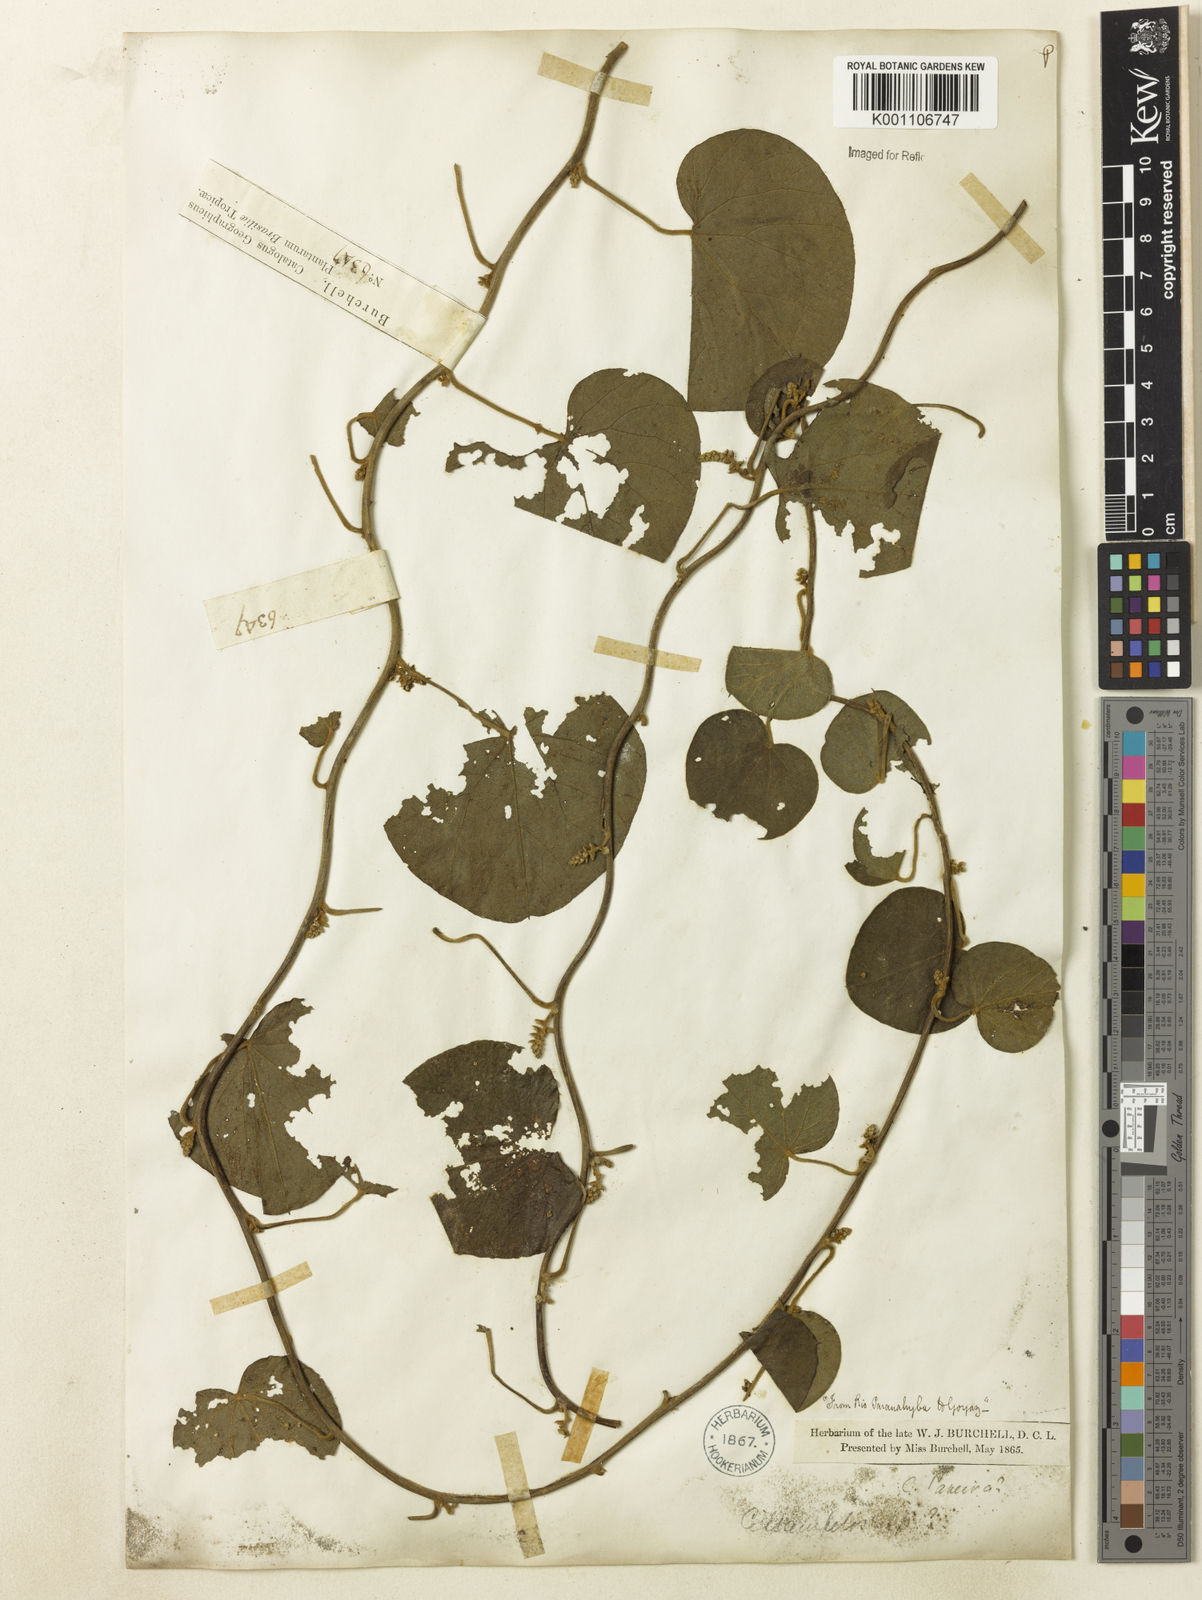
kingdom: Plantae
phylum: Tracheophyta
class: Magnoliopsida
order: Ranunculales
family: Menispermaceae
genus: Cissampelos
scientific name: Cissampelos pareira
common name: Velvetleaf
